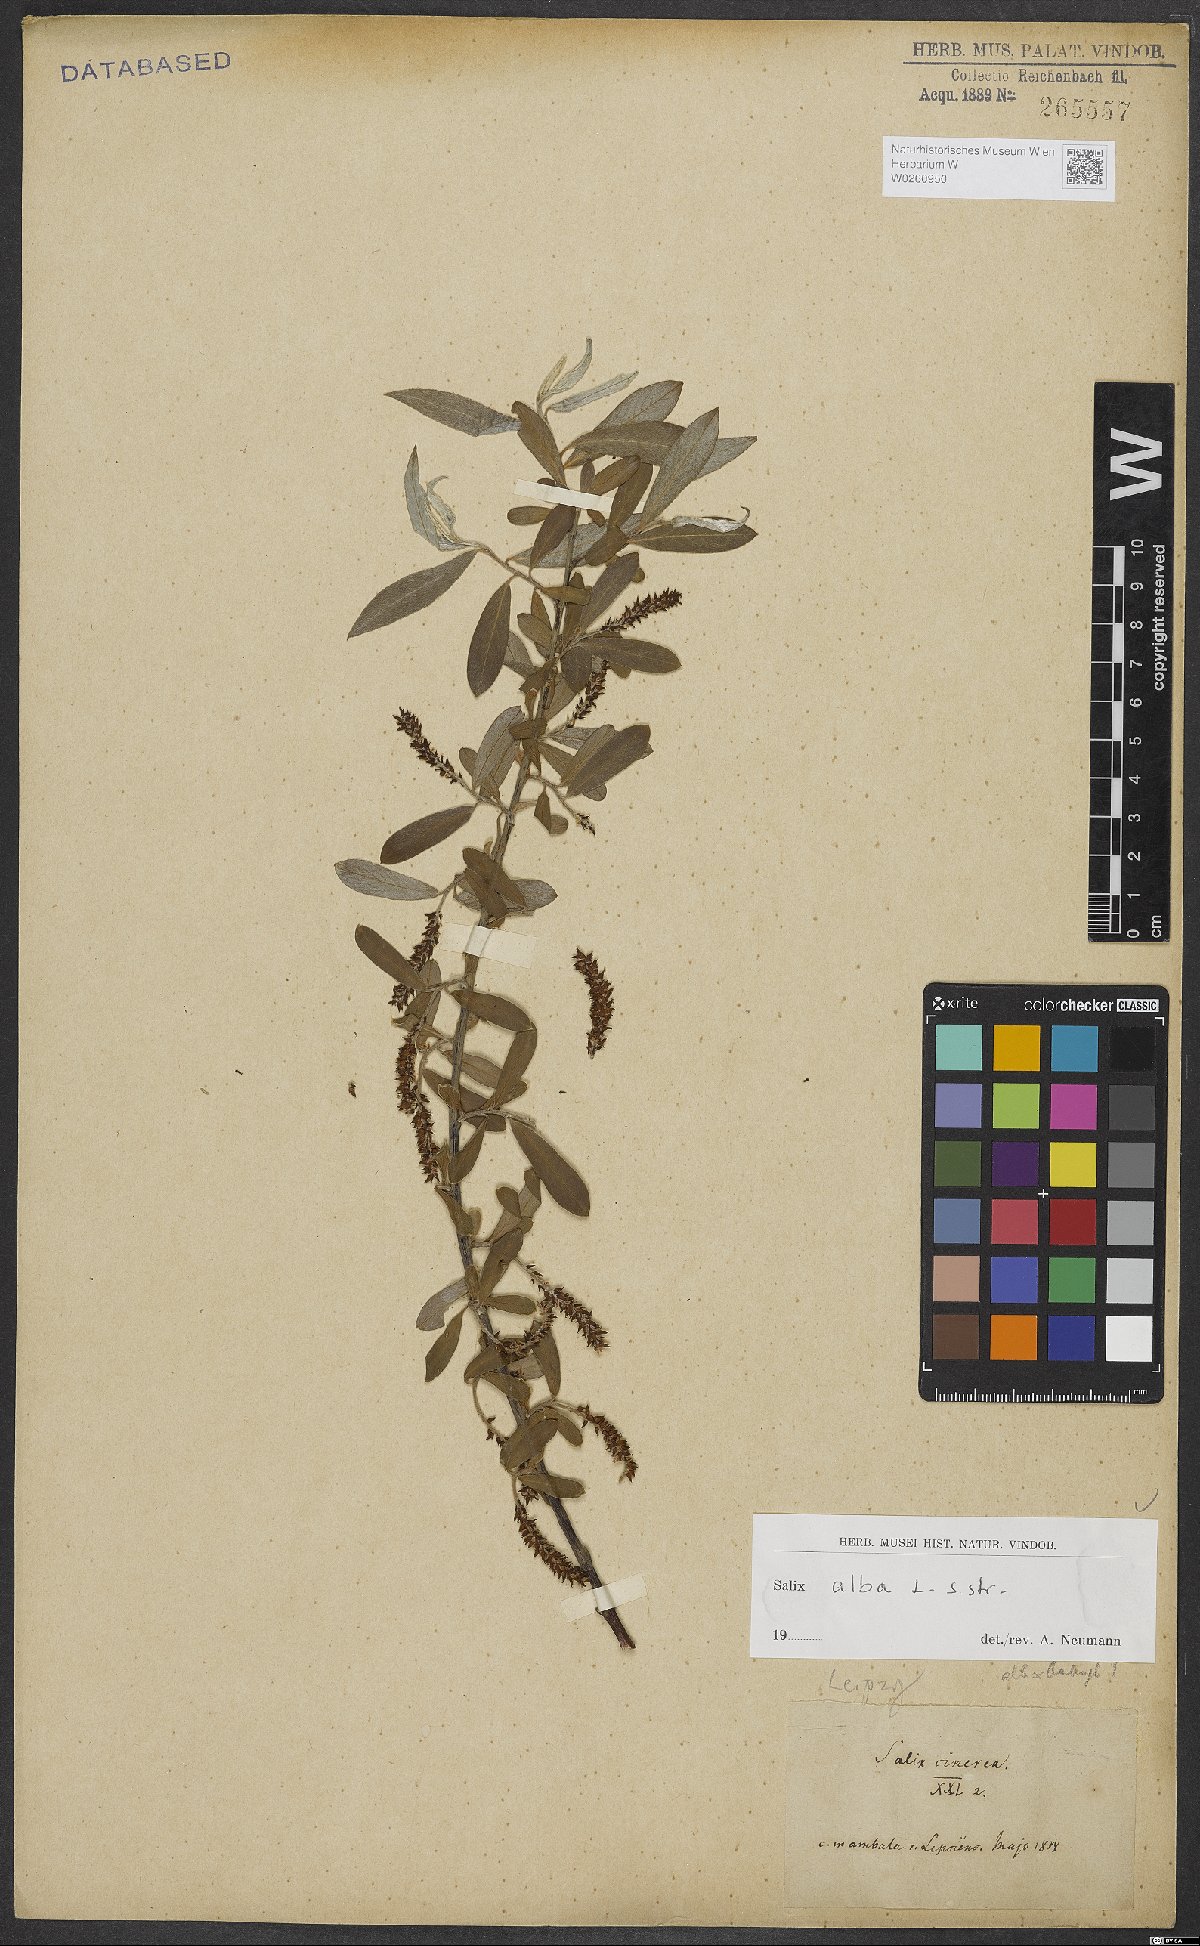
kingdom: Plantae
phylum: Tracheophyta
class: Magnoliopsida
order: Malpighiales
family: Salicaceae
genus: Salix
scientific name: Salix alba
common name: White willow
